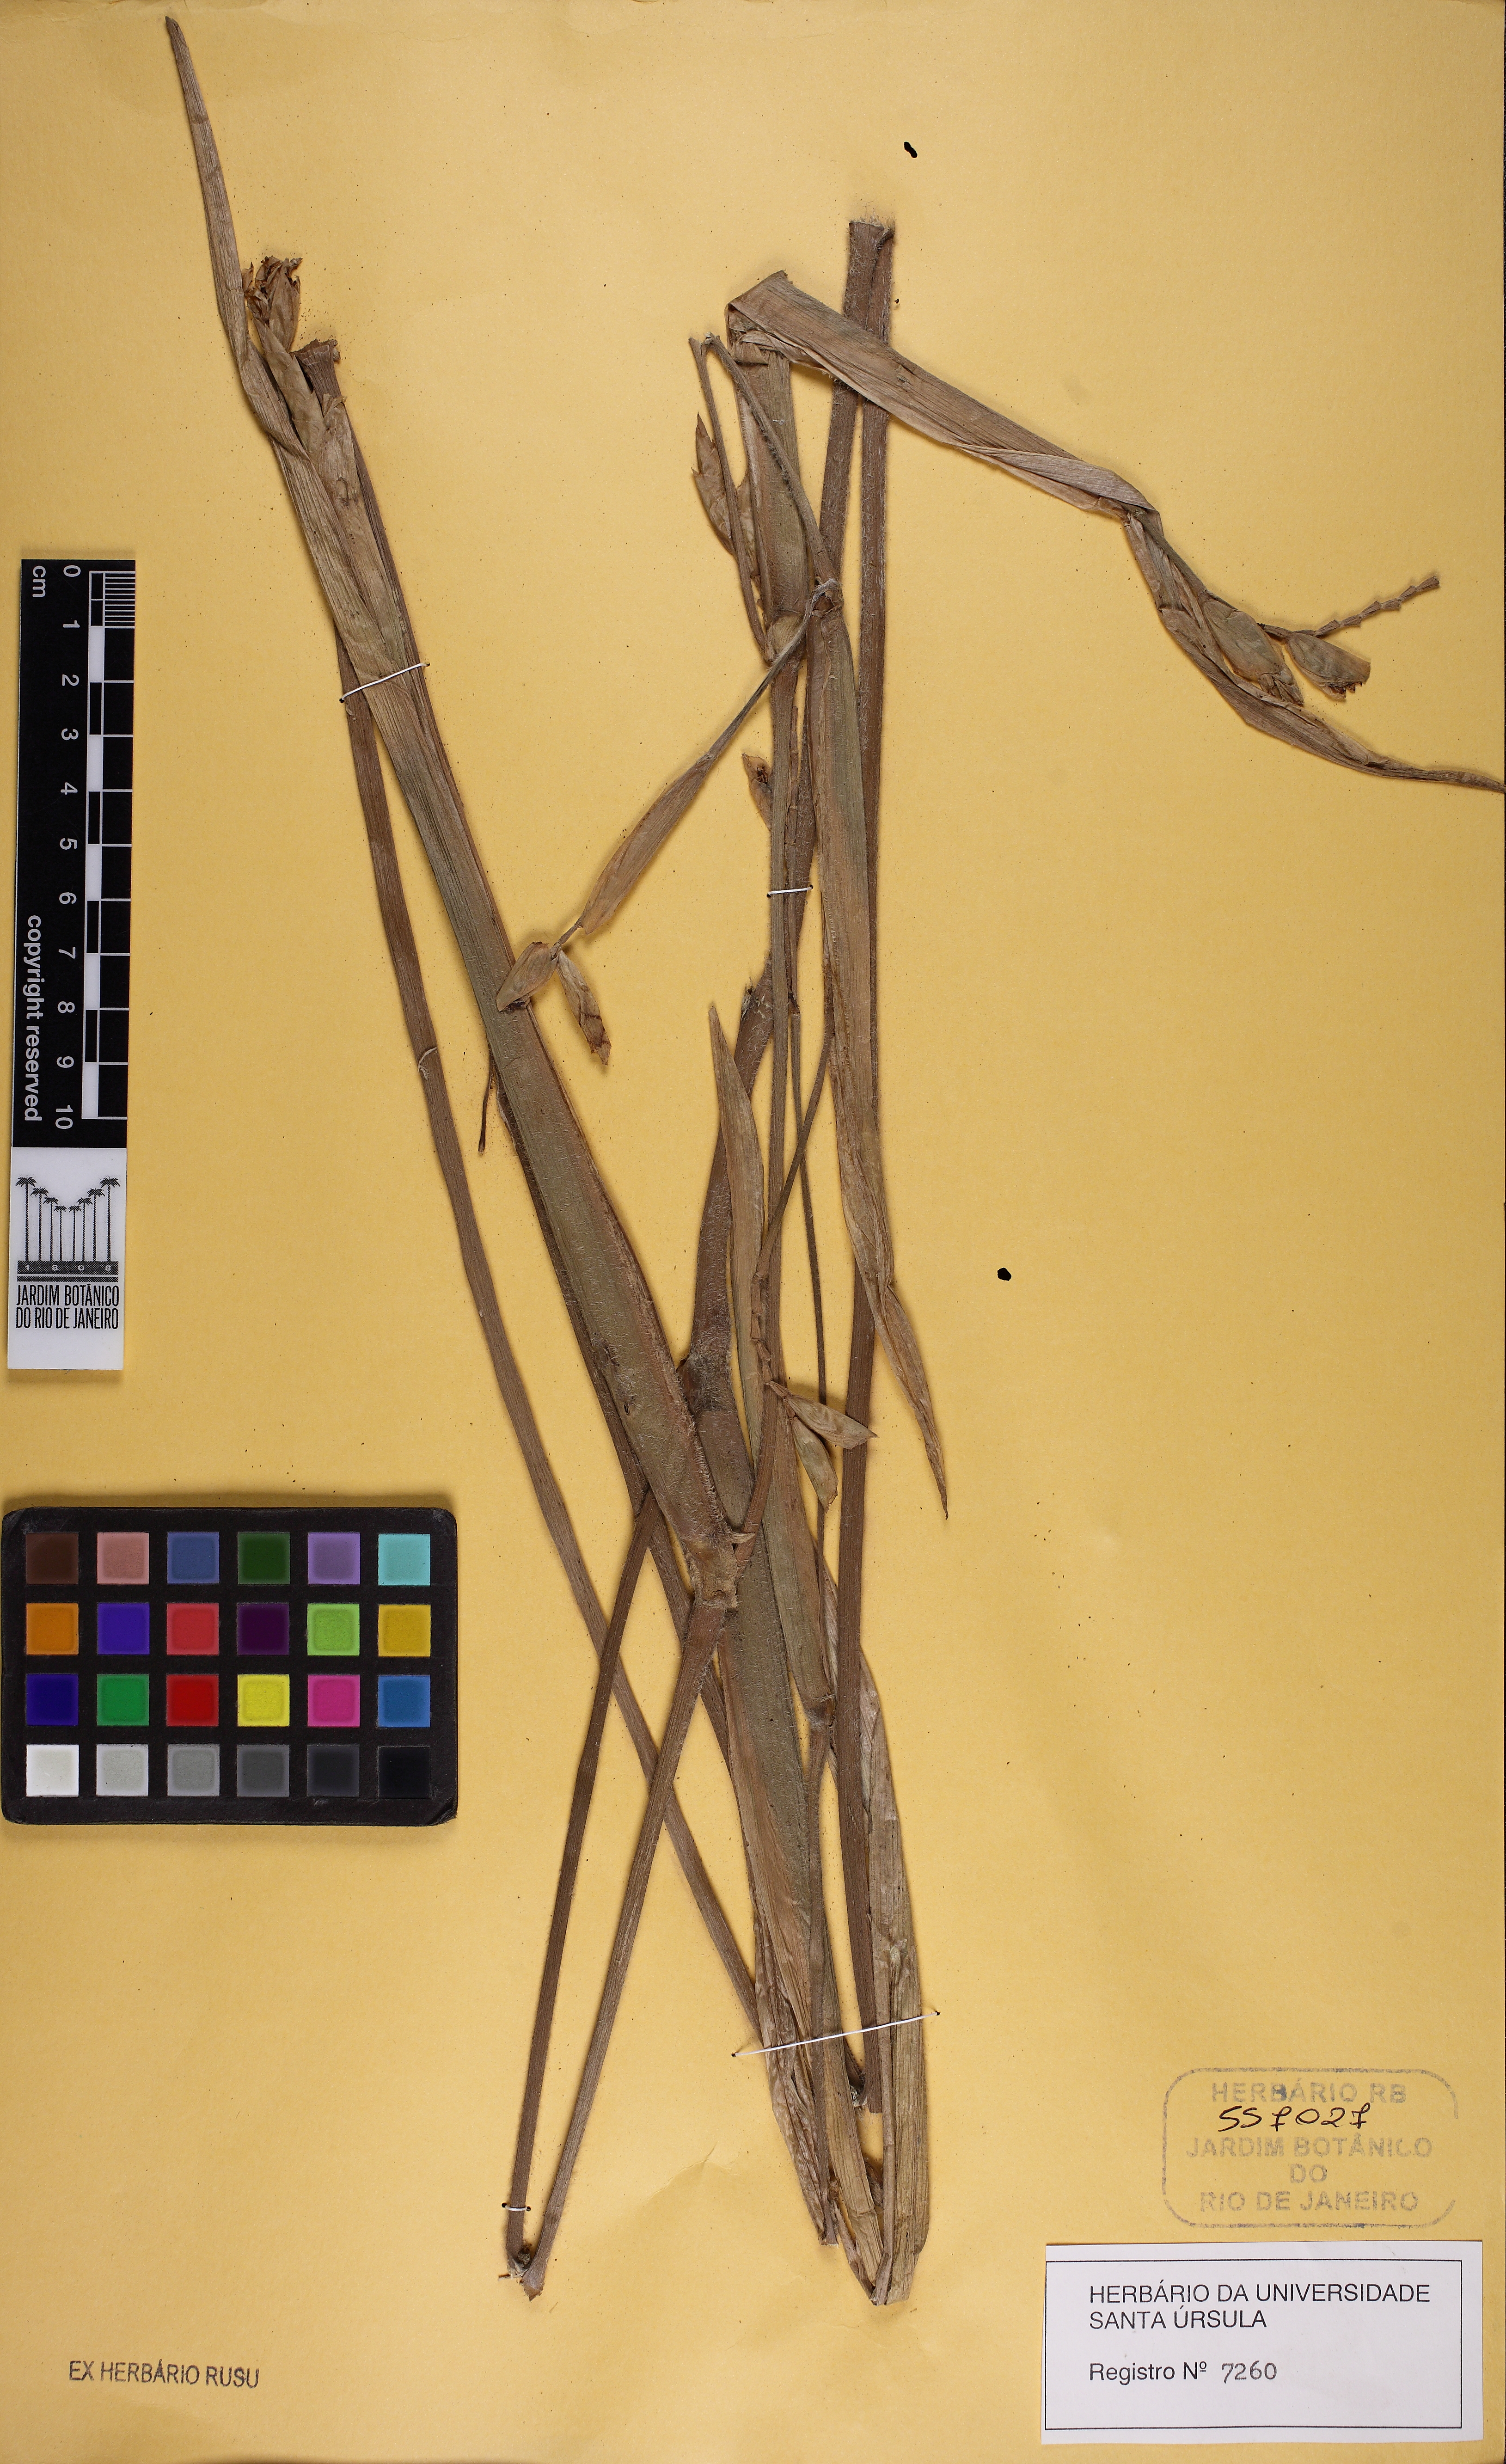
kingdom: Plantae
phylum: Tracheophyta
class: Liliopsida
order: Zingiberales
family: Marantaceae
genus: Saranthe
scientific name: Saranthe eichleri
